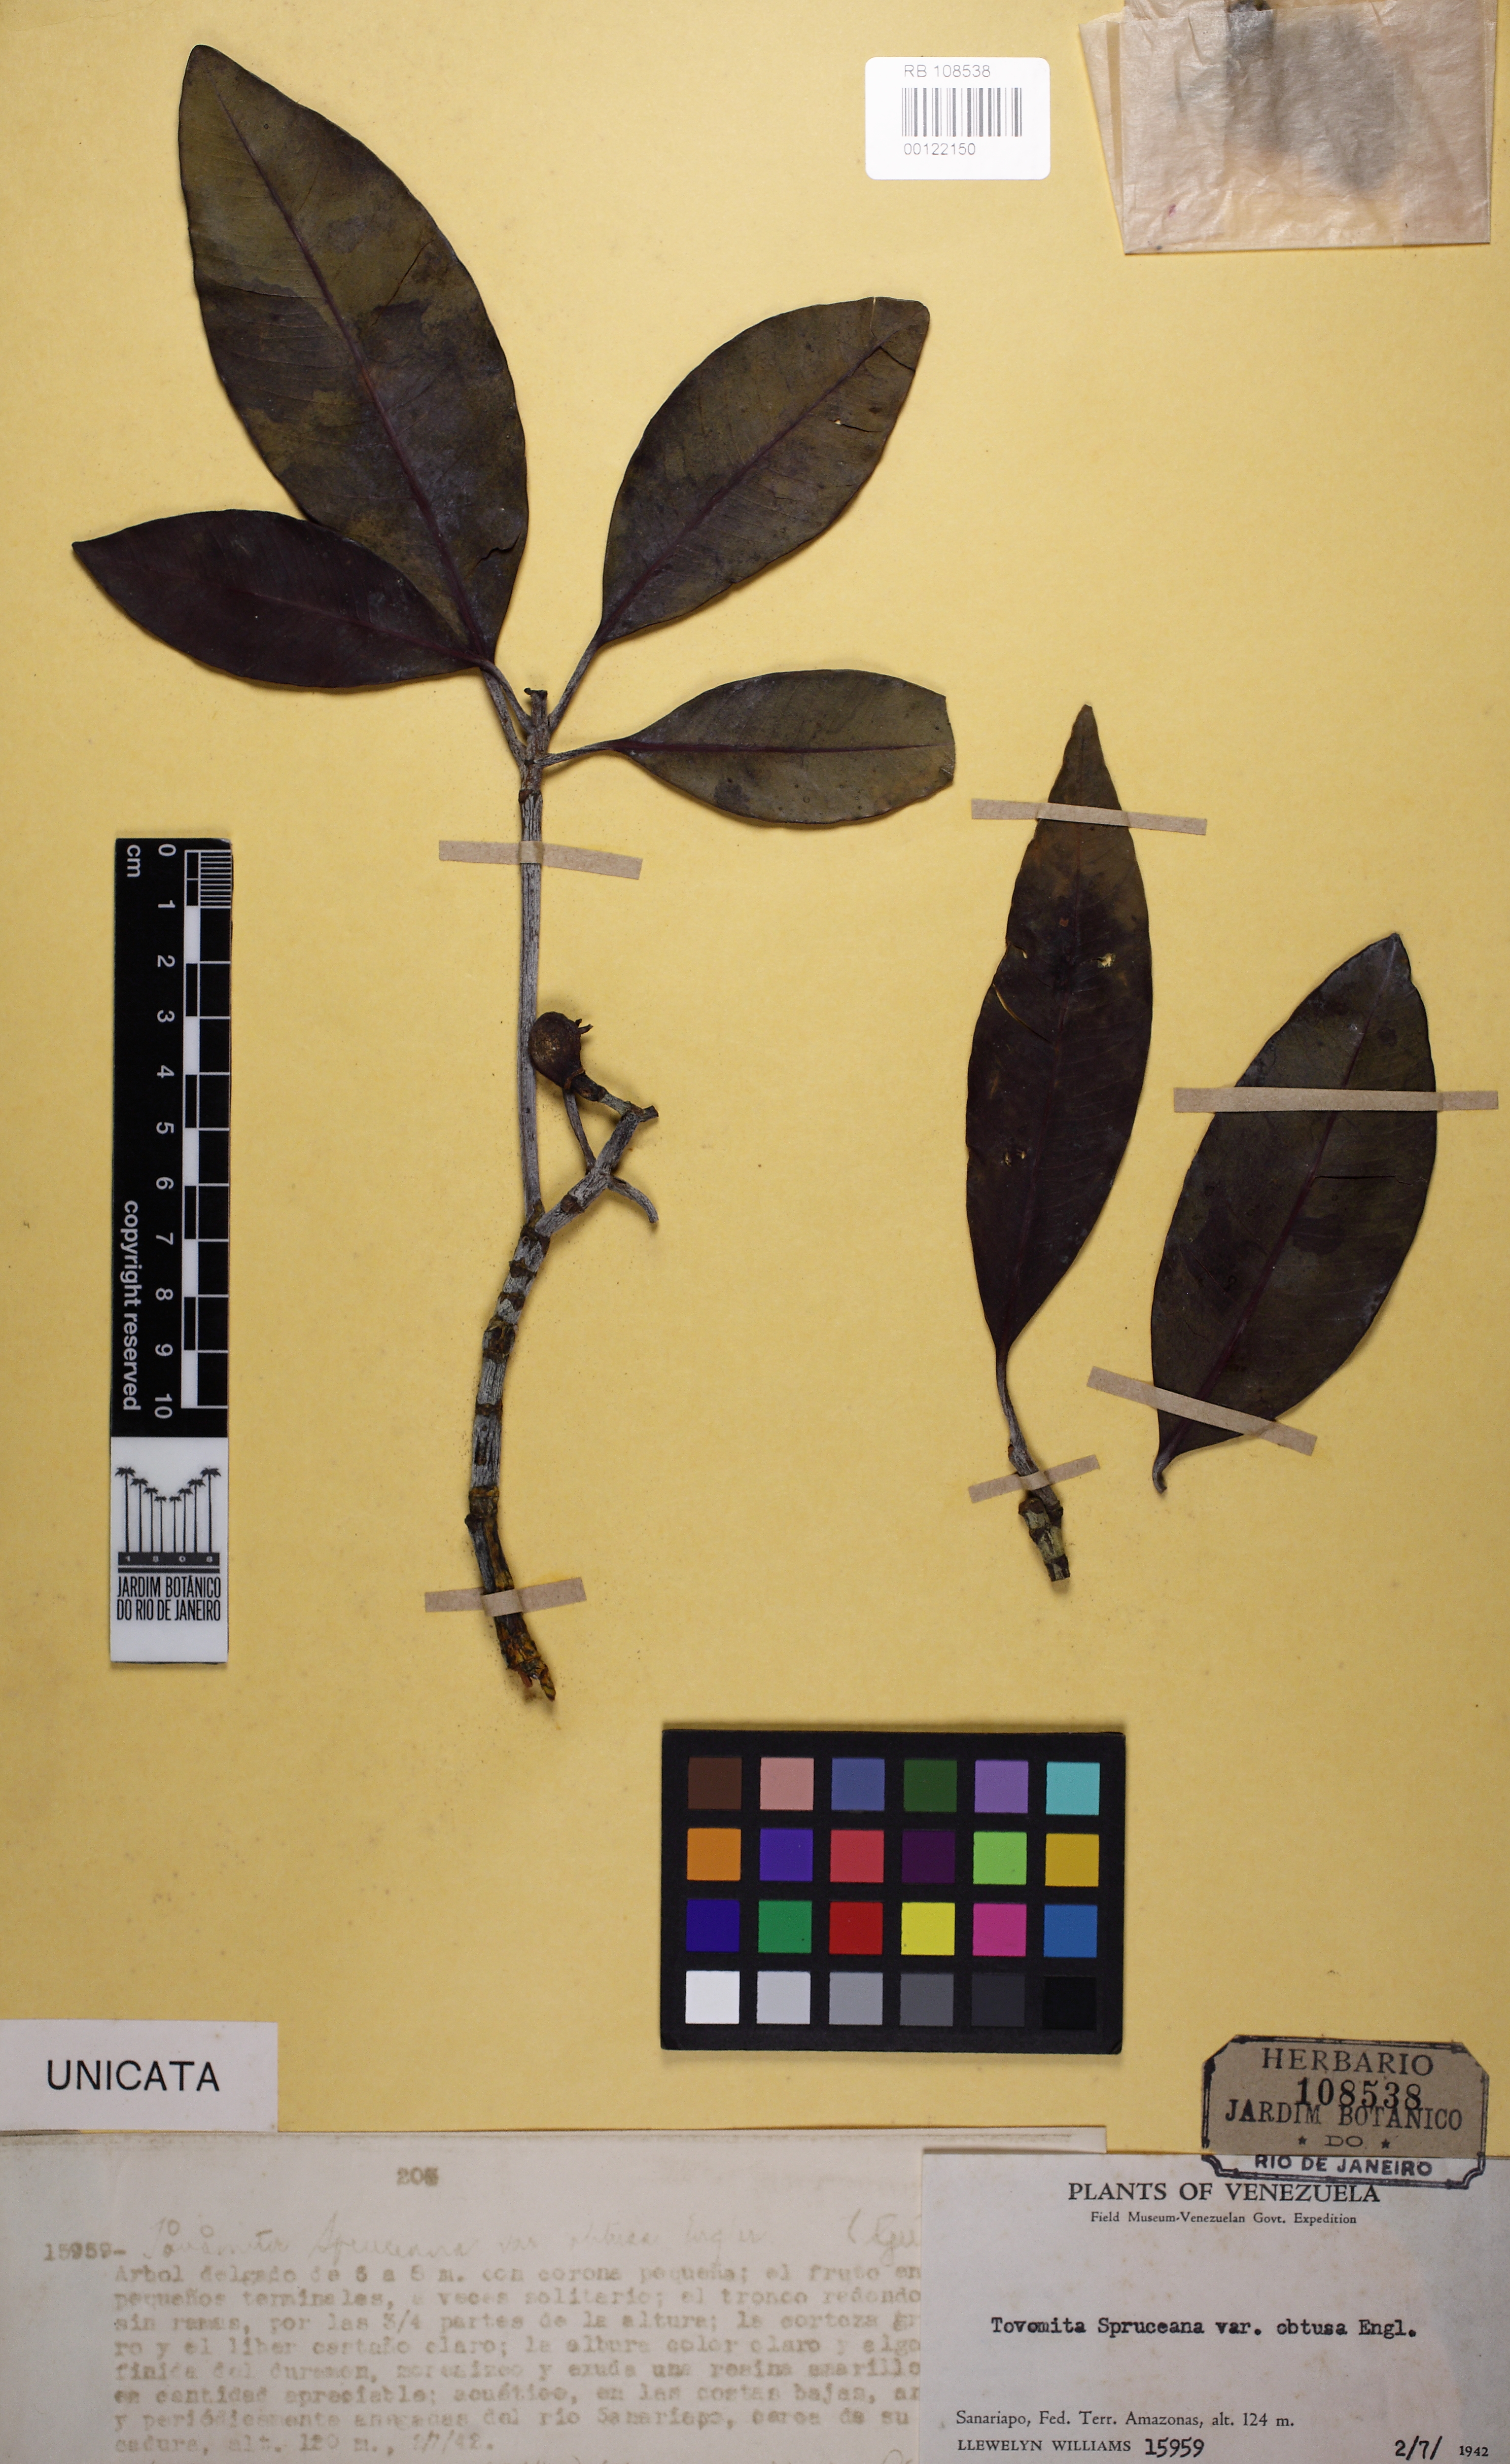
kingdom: Plantae
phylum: Tracheophyta
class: Magnoliopsida
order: Malpighiales
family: Clusiaceae
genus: Tovomita
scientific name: Tovomita spruceana
